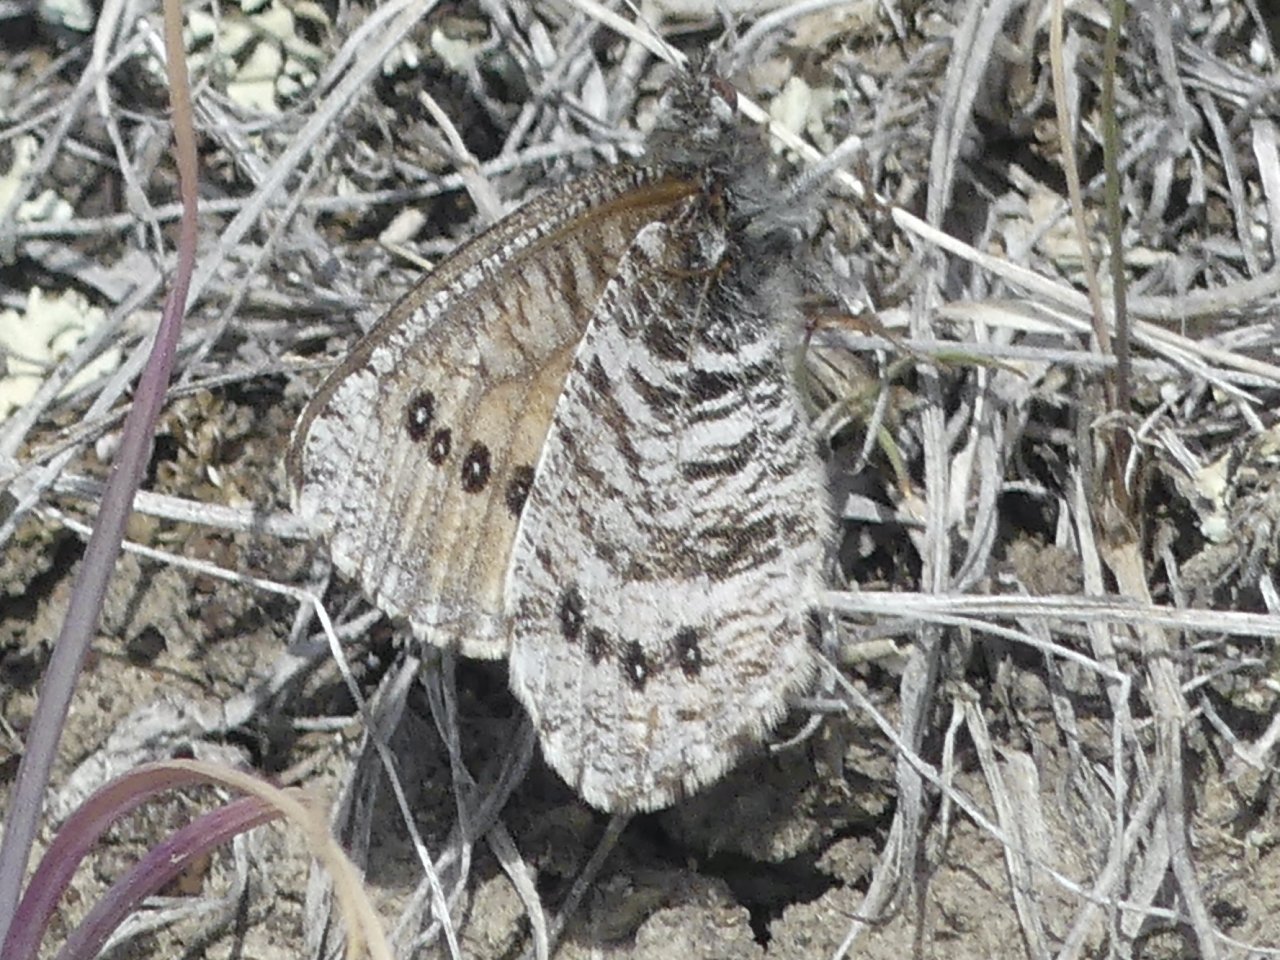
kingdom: Animalia
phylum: Arthropoda
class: Insecta
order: Lepidoptera
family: Nymphalidae
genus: Oeneis
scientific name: Oeneis uhleri
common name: Uhler's Arctic
